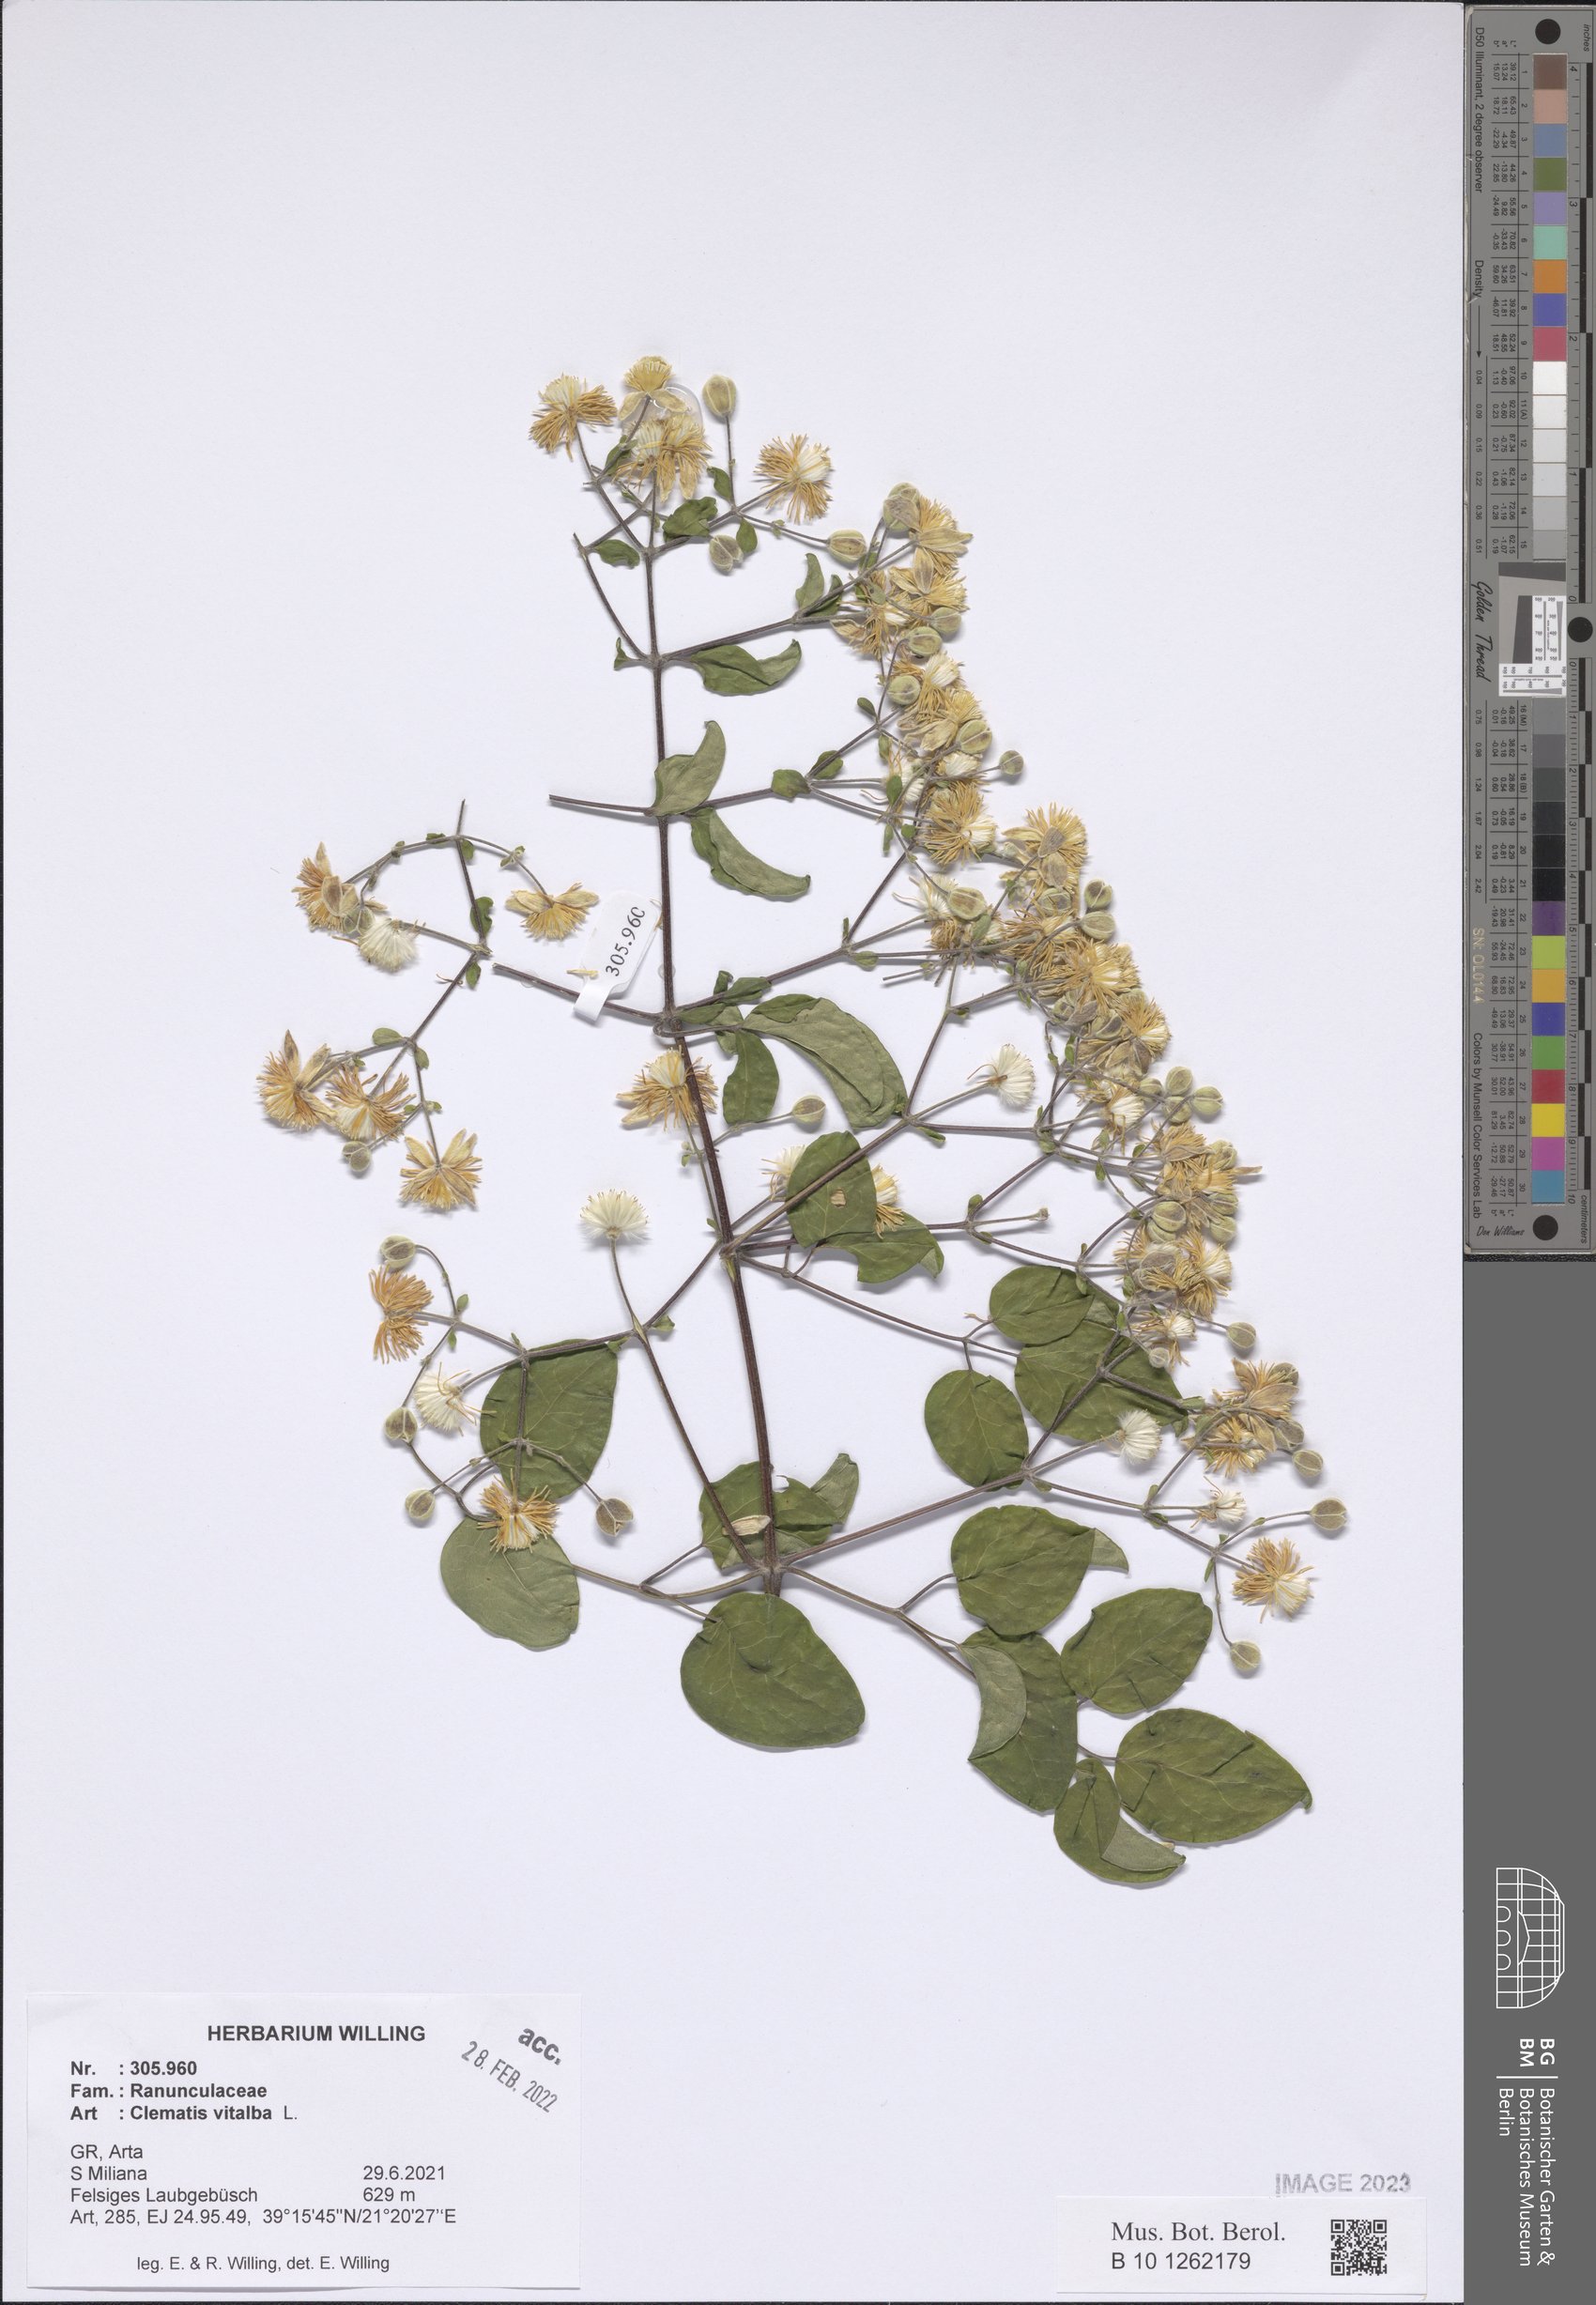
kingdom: Plantae
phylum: Tracheophyta
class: Magnoliopsida
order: Ranunculales
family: Ranunculaceae
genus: Clematis
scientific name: Clematis vitalba
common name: Evergreen clematis
